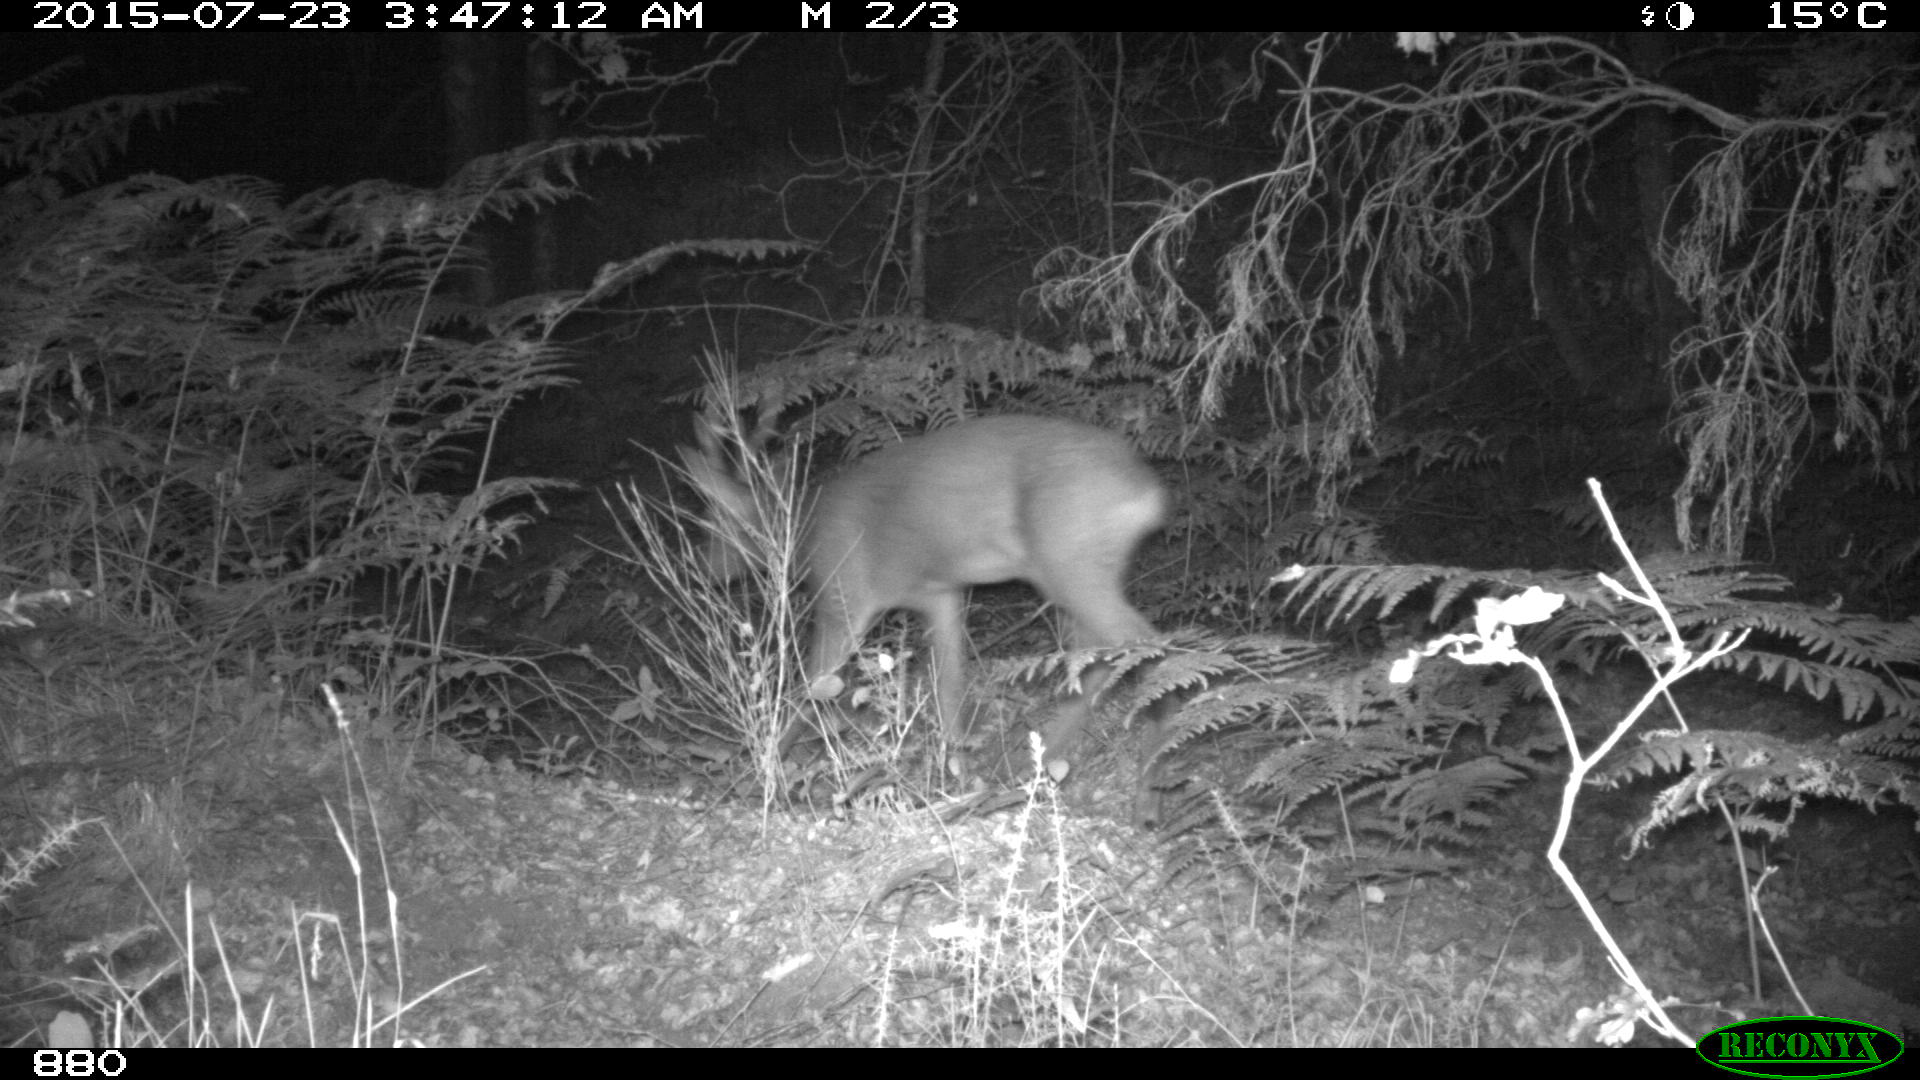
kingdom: Animalia
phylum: Chordata
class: Mammalia
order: Artiodactyla
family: Cervidae
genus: Capreolus
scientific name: Capreolus capreolus
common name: Western roe deer
